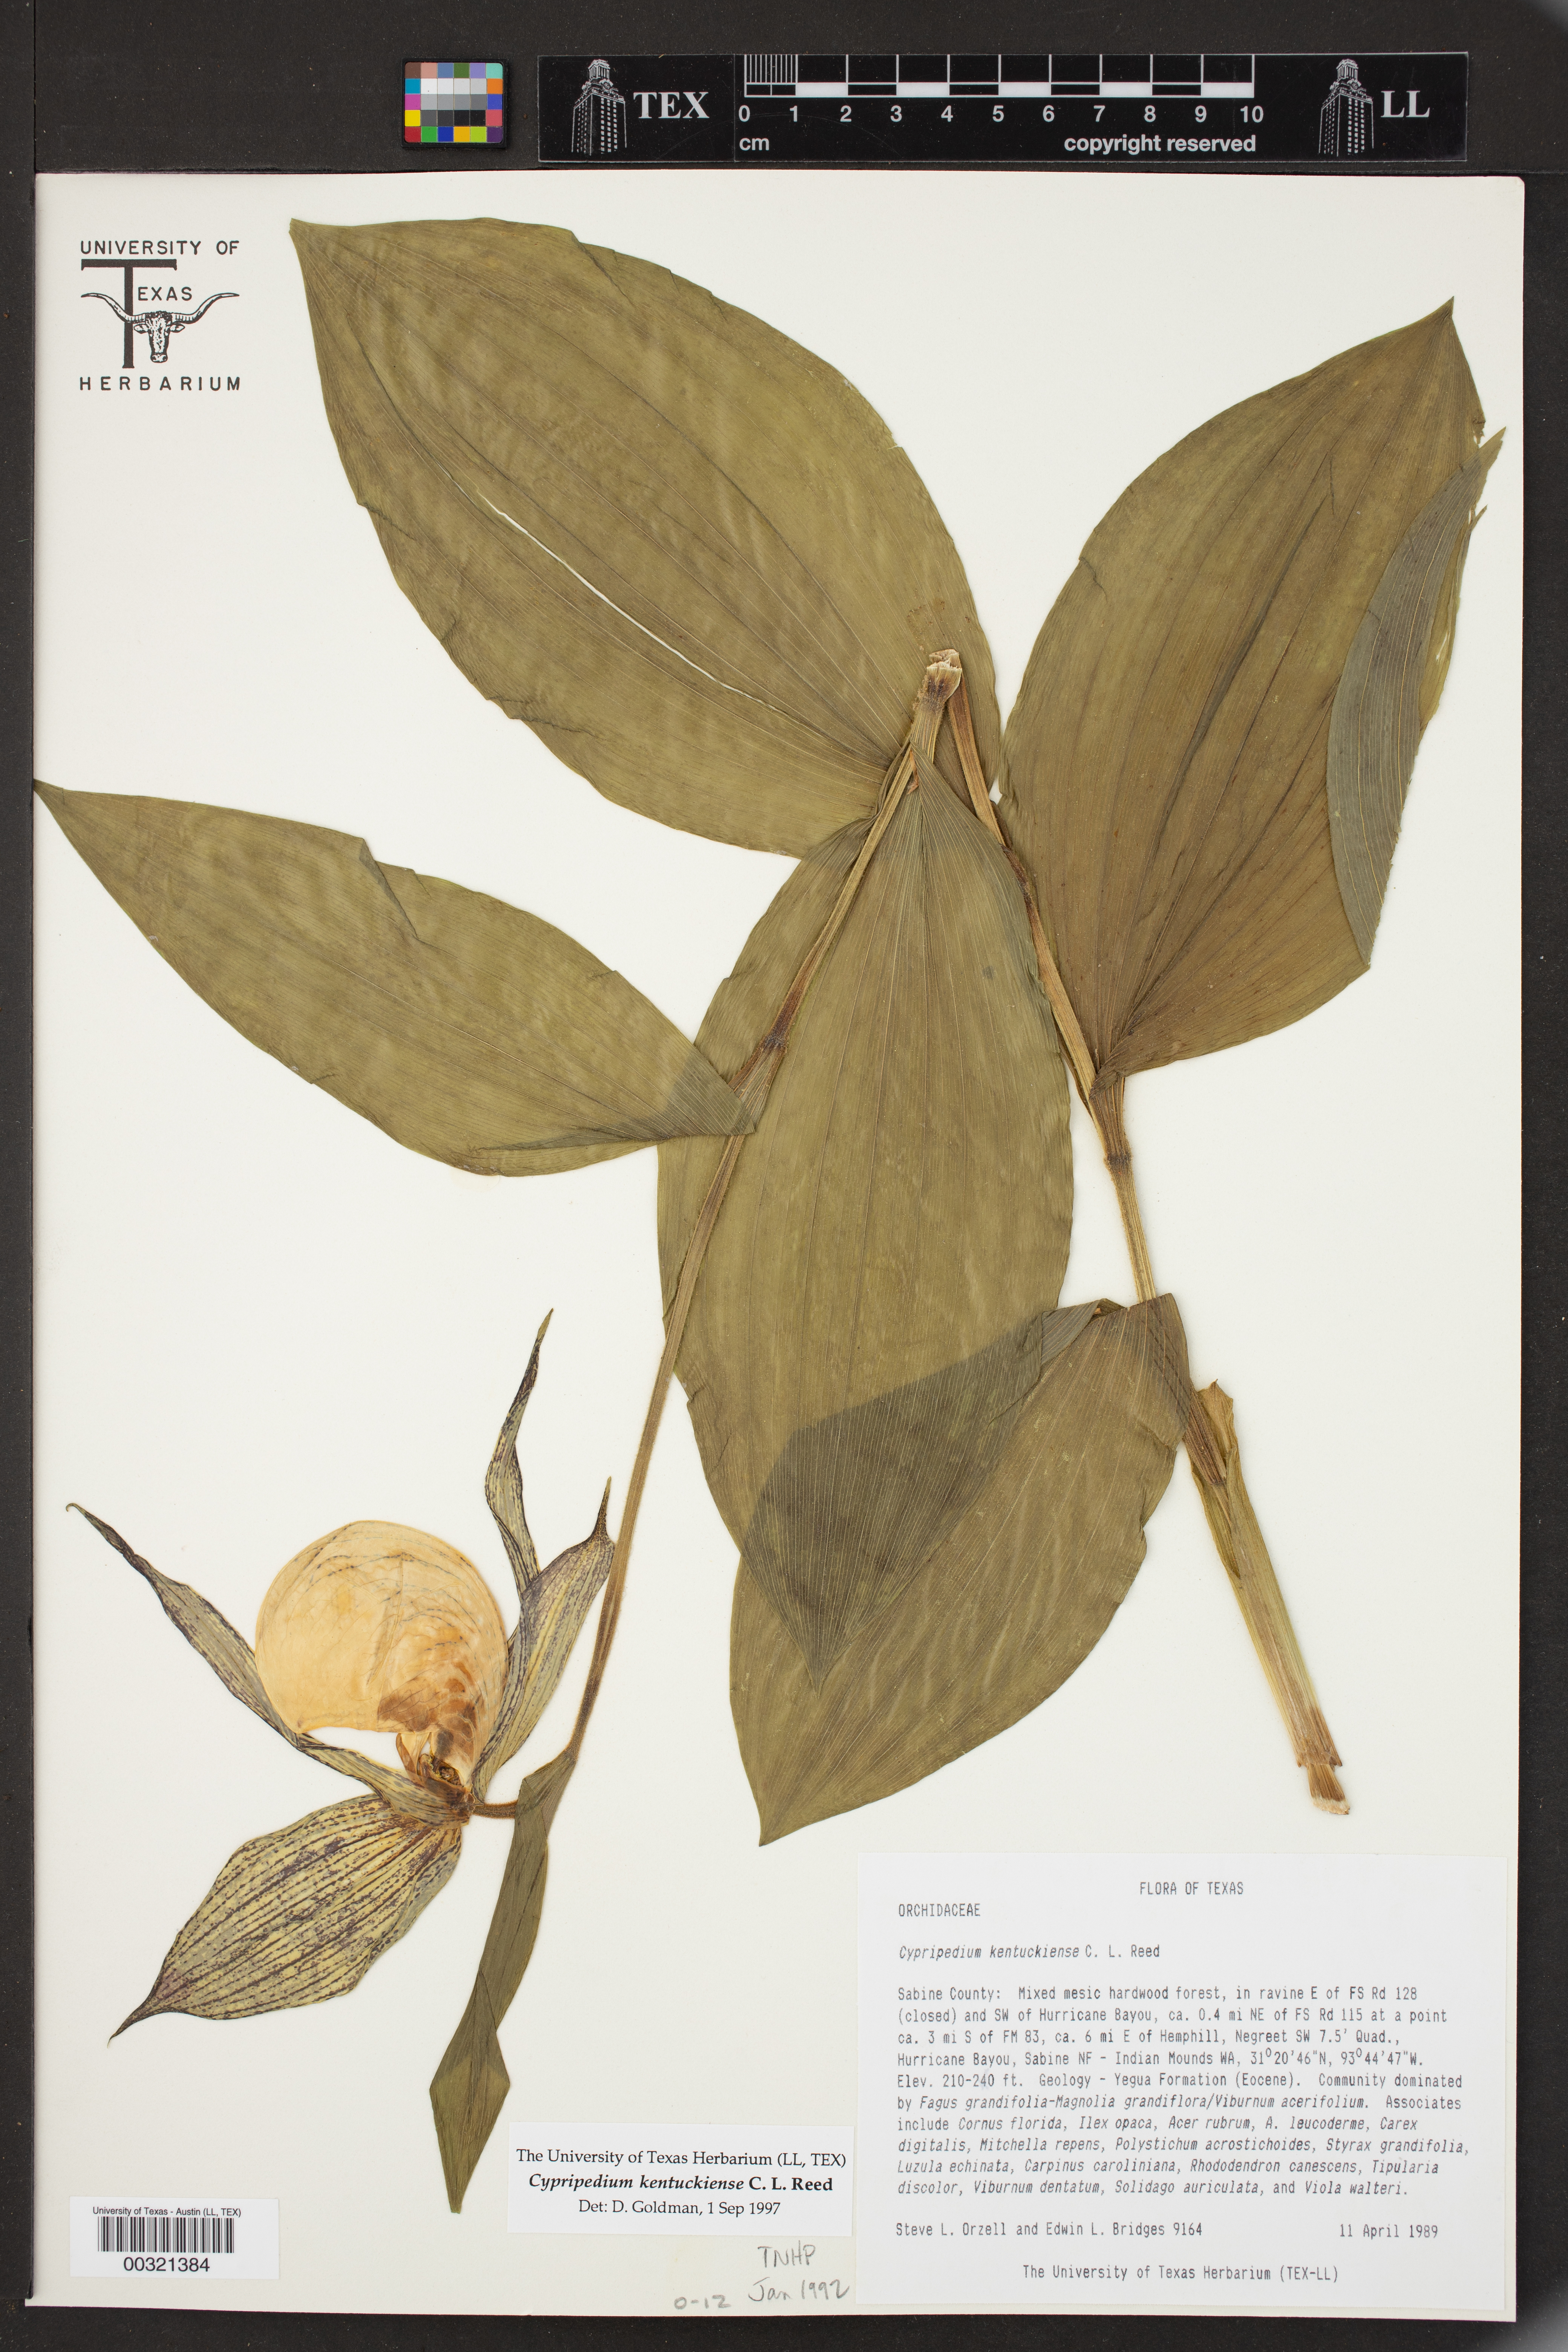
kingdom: Plantae
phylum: Tracheophyta
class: Liliopsida
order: Asparagales
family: Orchidaceae
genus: Cypripedium
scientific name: Cypripedium kentuckiense
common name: Kentucky lady's slipper
